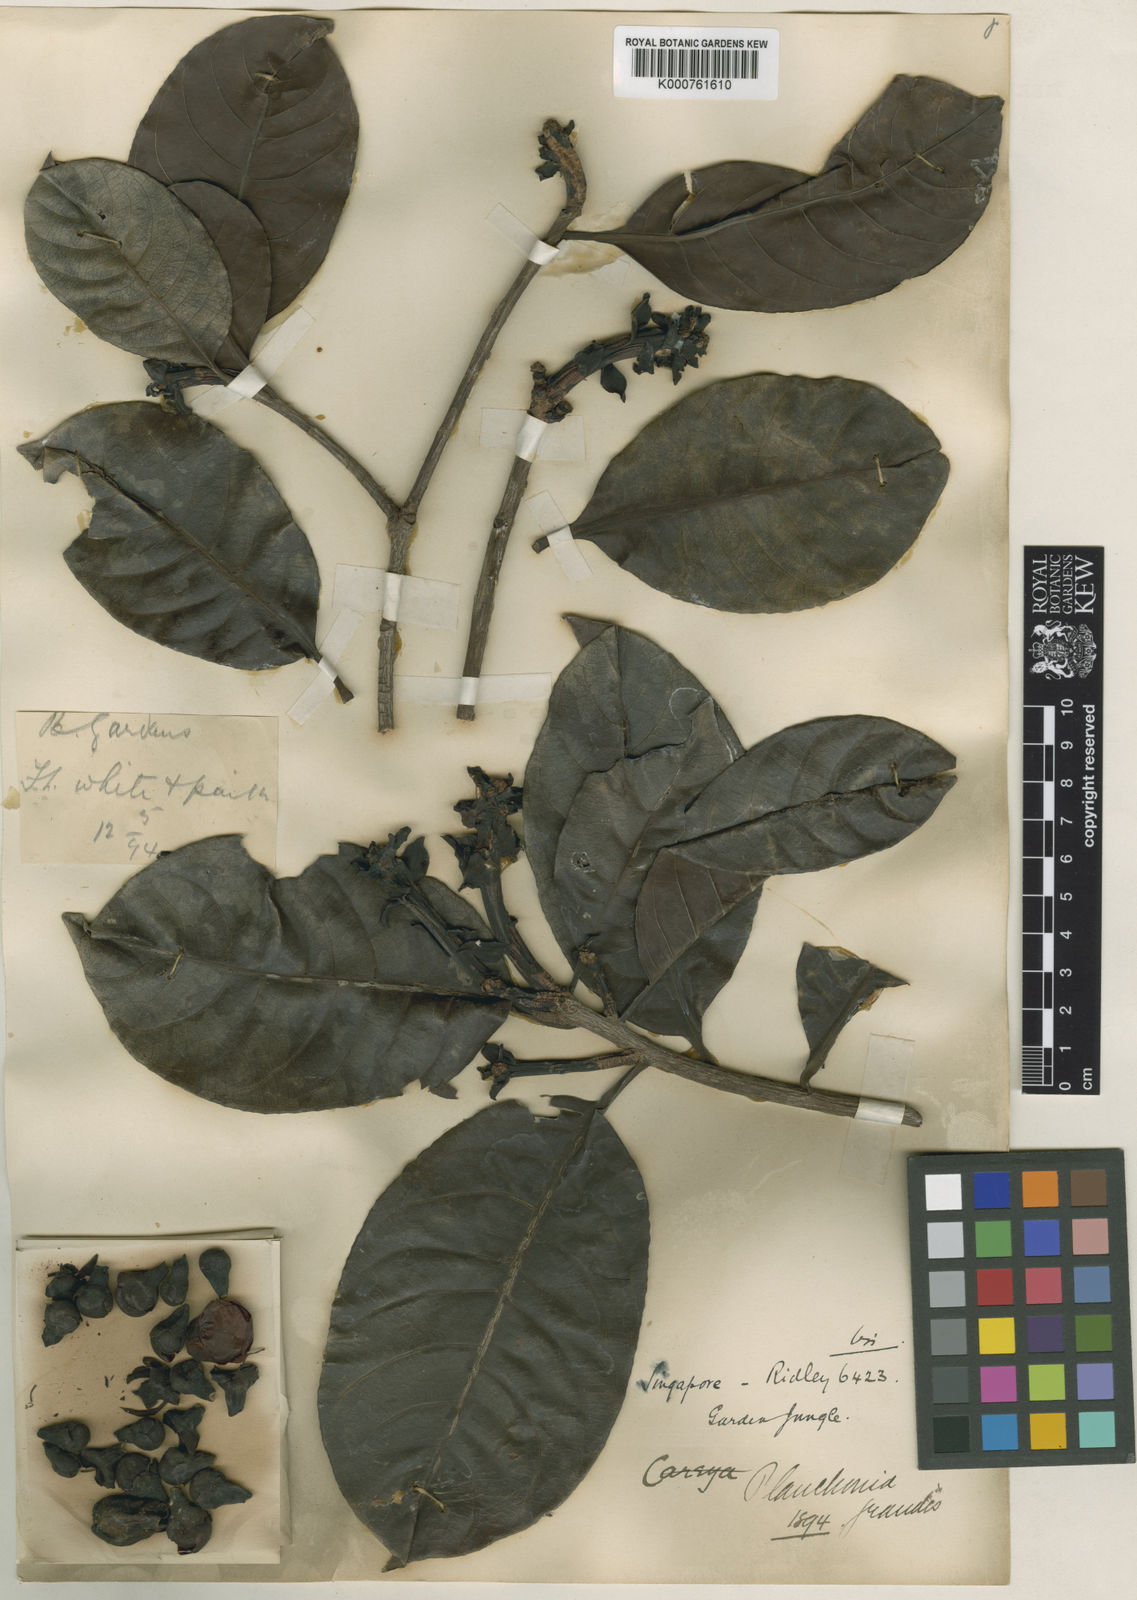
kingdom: Plantae
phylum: Tracheophyta
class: Magnoliopsida
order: Ericales
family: Lecythidaceae
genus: Planchonia
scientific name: Planchonia grandis
